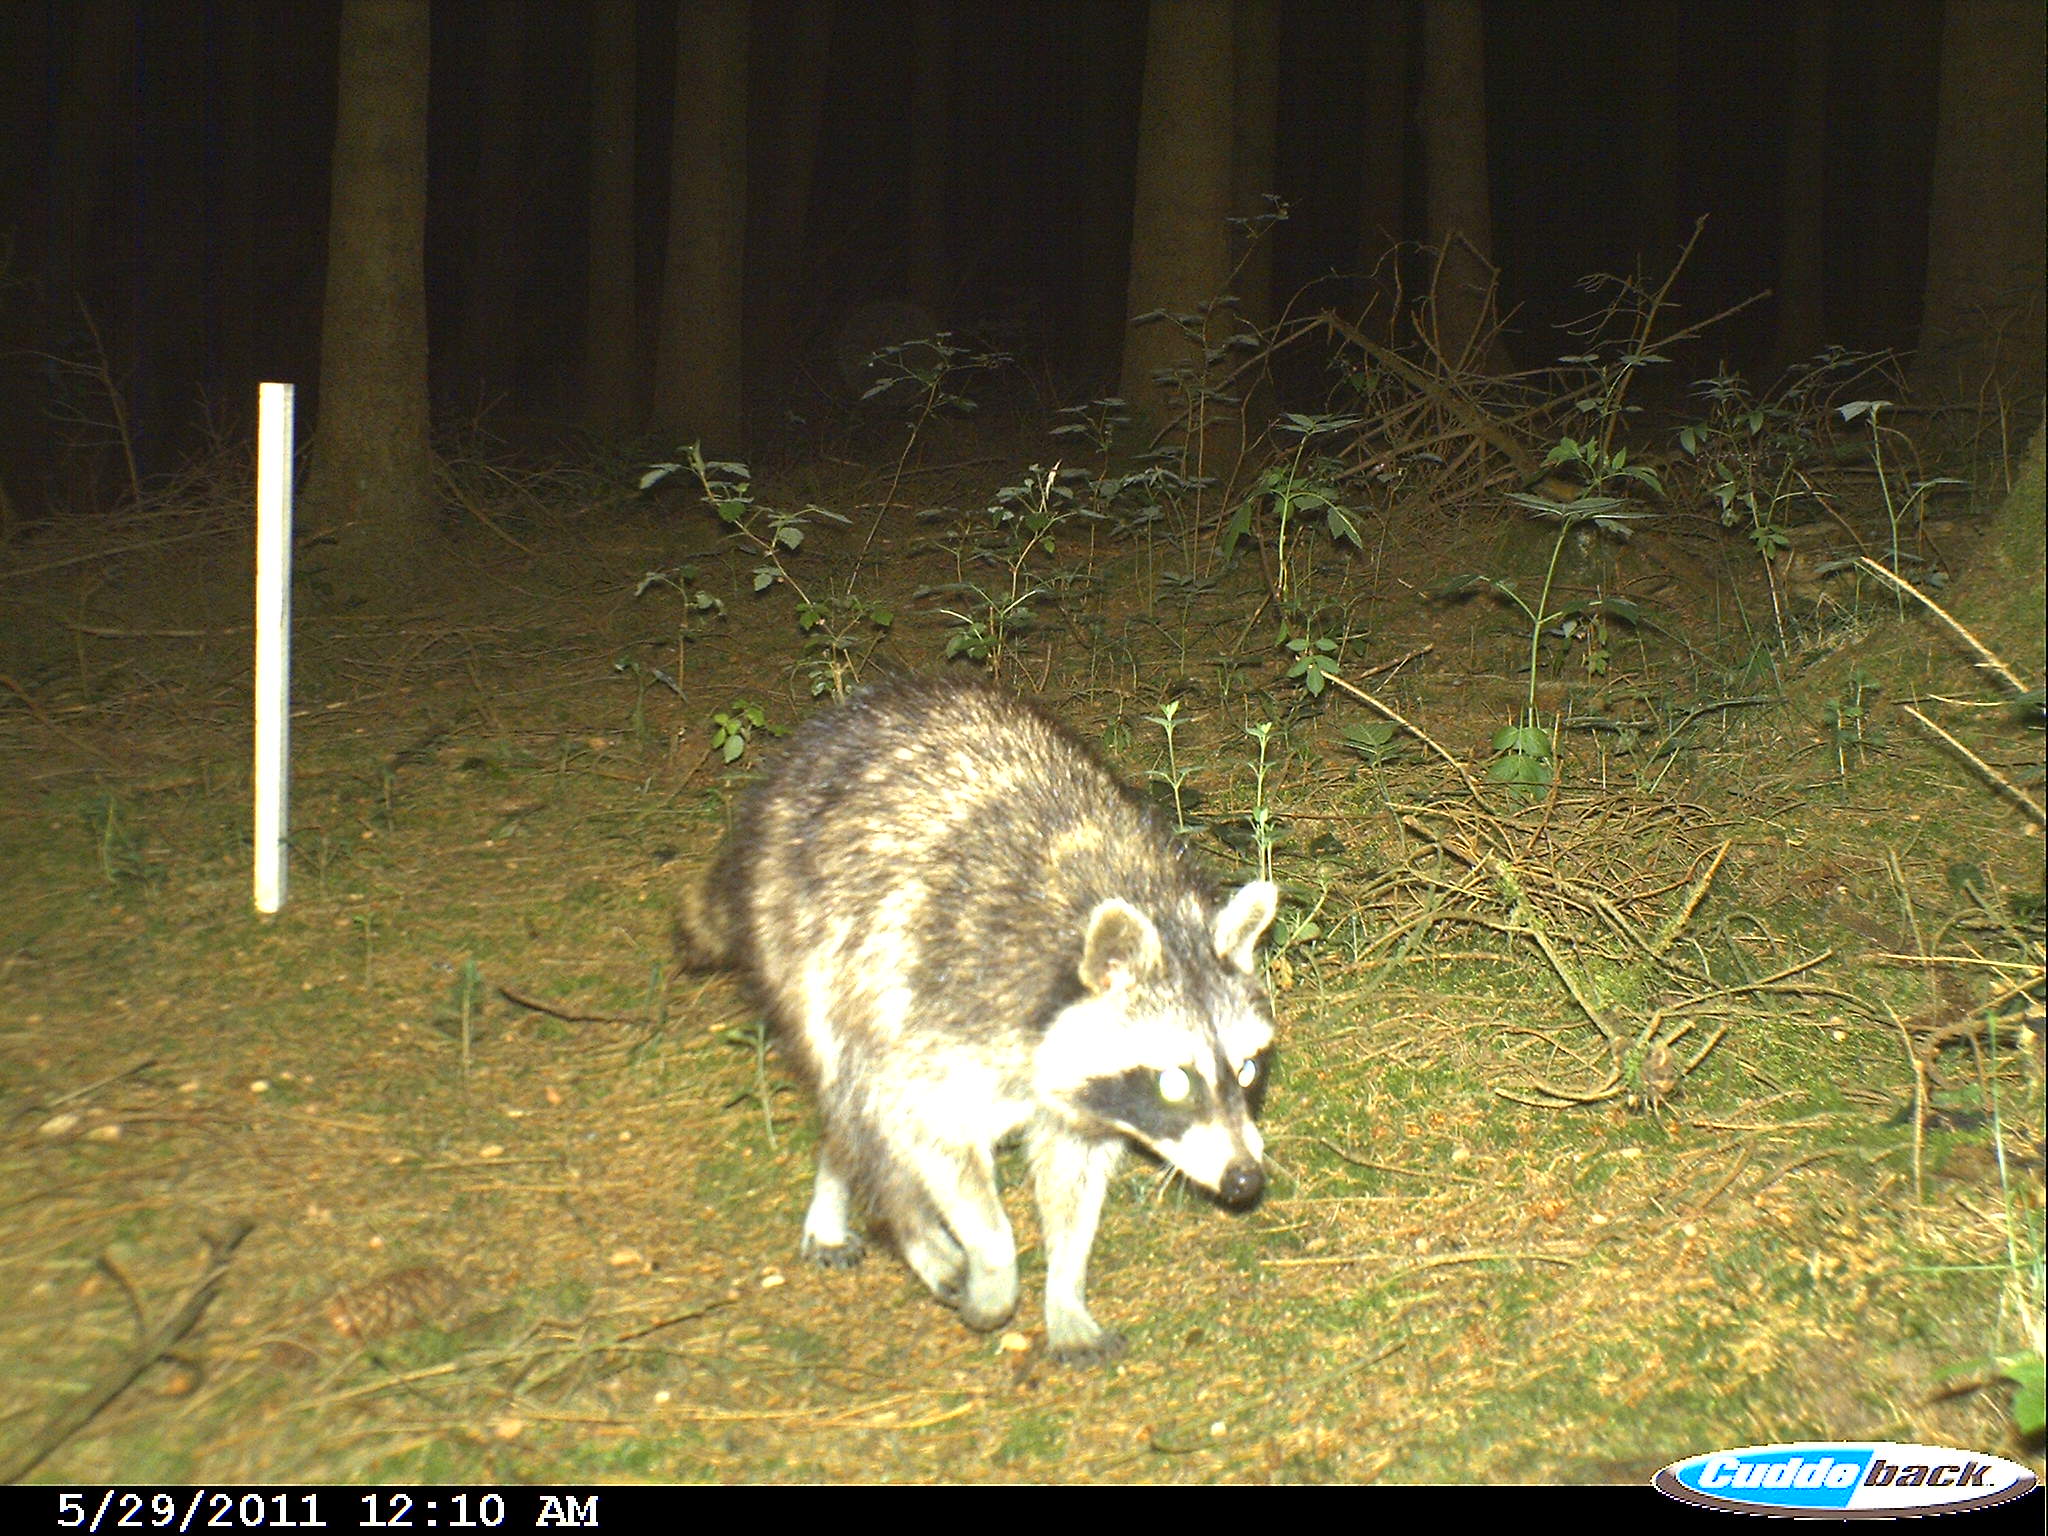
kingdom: Animalia
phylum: Chordata
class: Mammalia
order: Carnivora
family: Procyonidae
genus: Procyon
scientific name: Procyon lotor
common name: Raccoon
